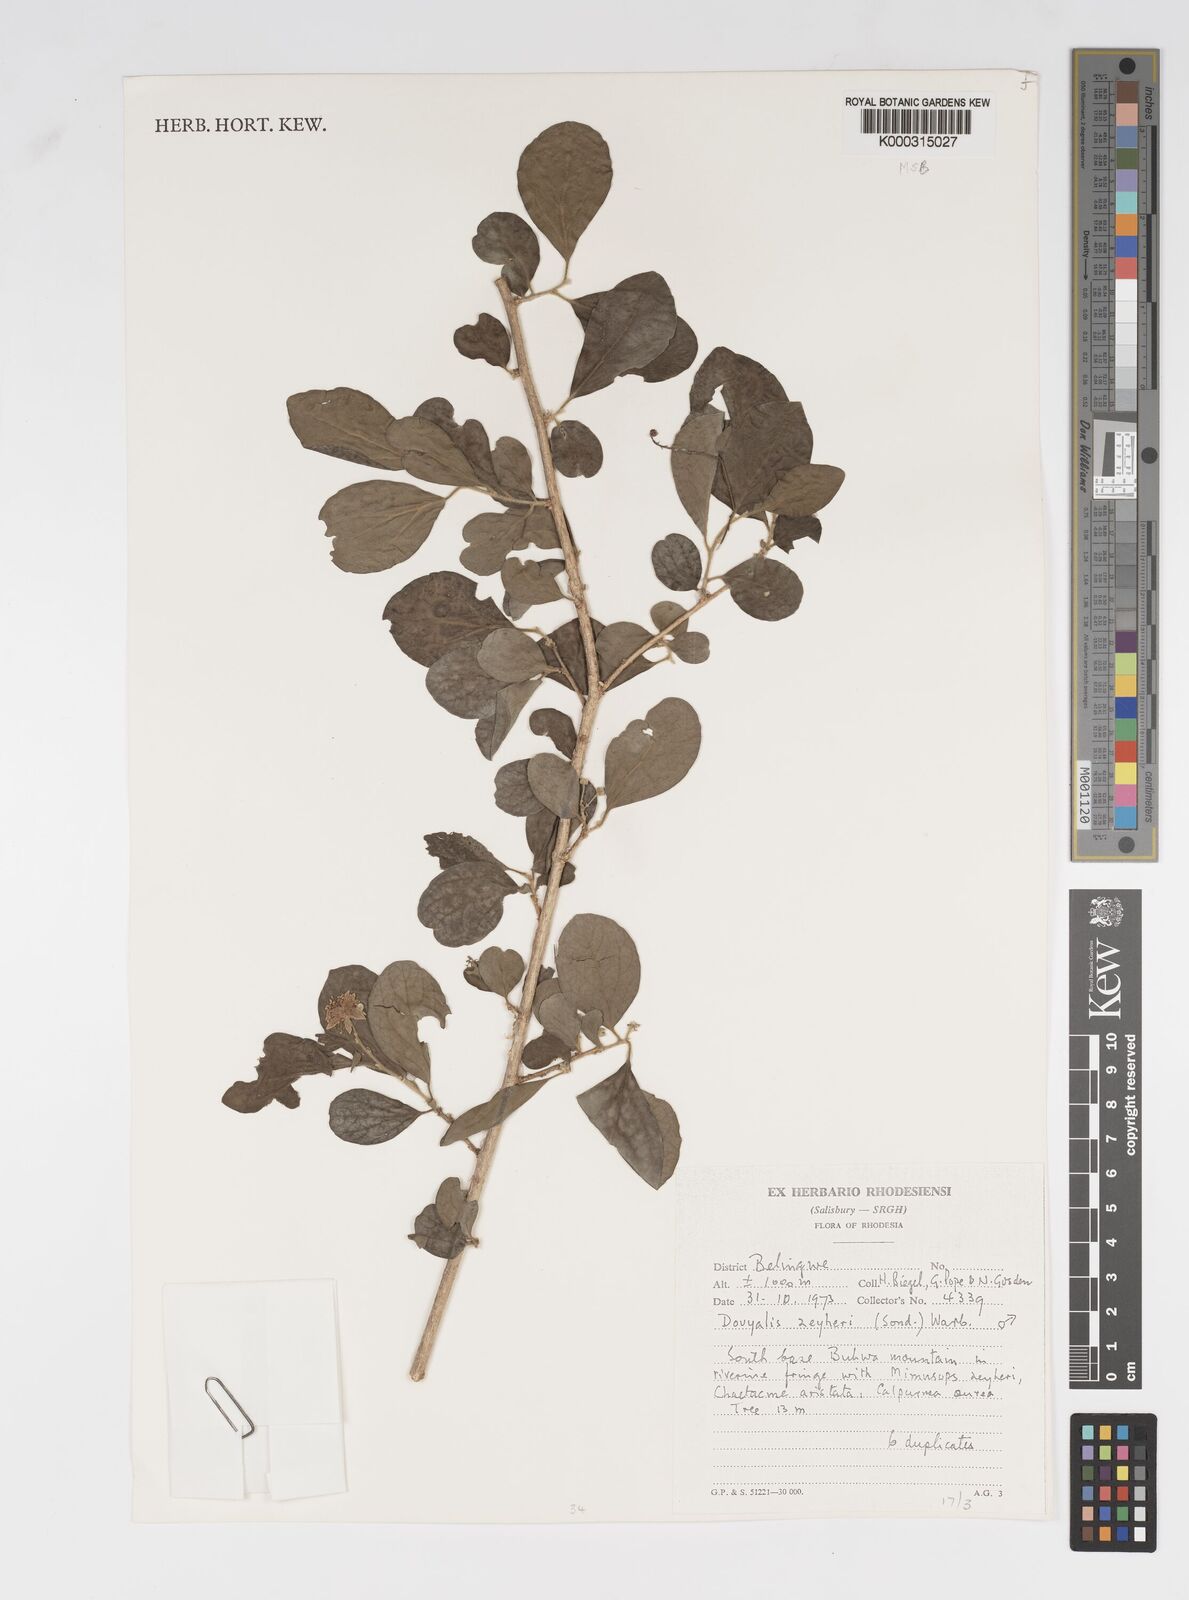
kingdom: Plantae
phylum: Tracheophyta
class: Magnoliopsida
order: Malpighiales
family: Salicaceae
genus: Dovyalis
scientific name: Dovyalis zeyheri
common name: Apricot sourberry
